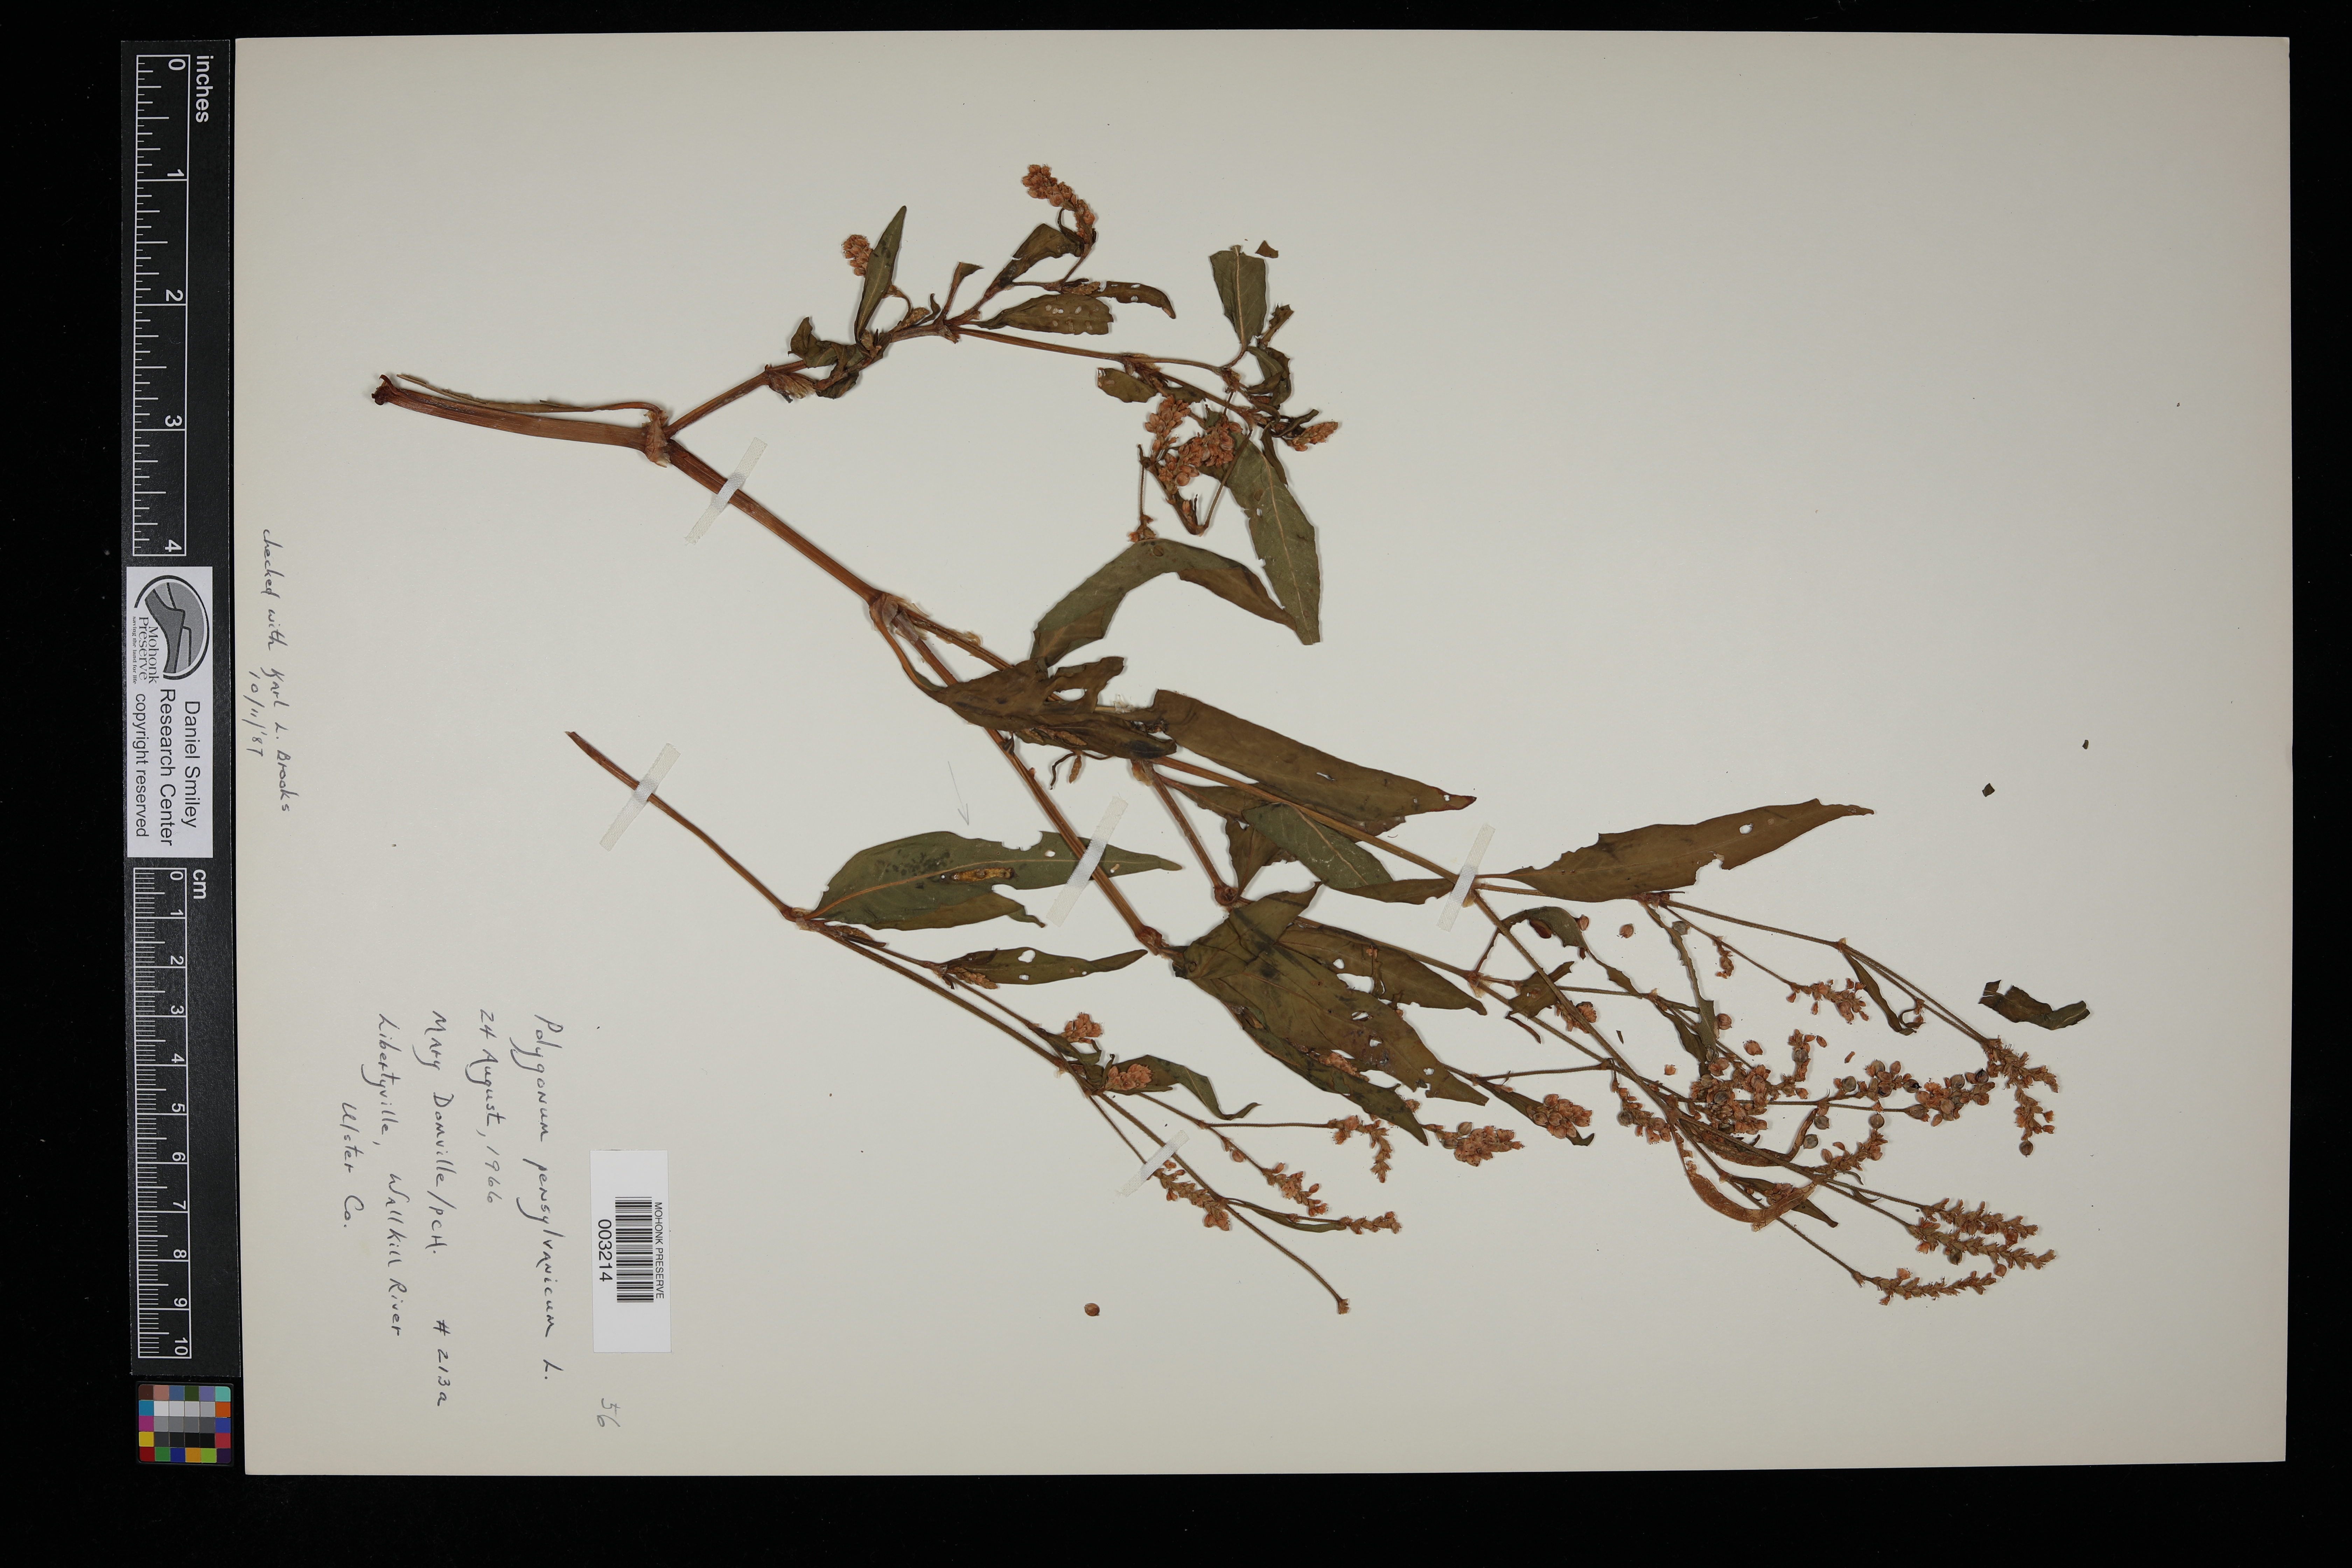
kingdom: Plantae
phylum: Tracheophyta
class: Magnoliopsida
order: Caryophyllales
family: Polygonaceae
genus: Persicaria
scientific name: Persicaria pensylvanica
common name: Pinkweed
